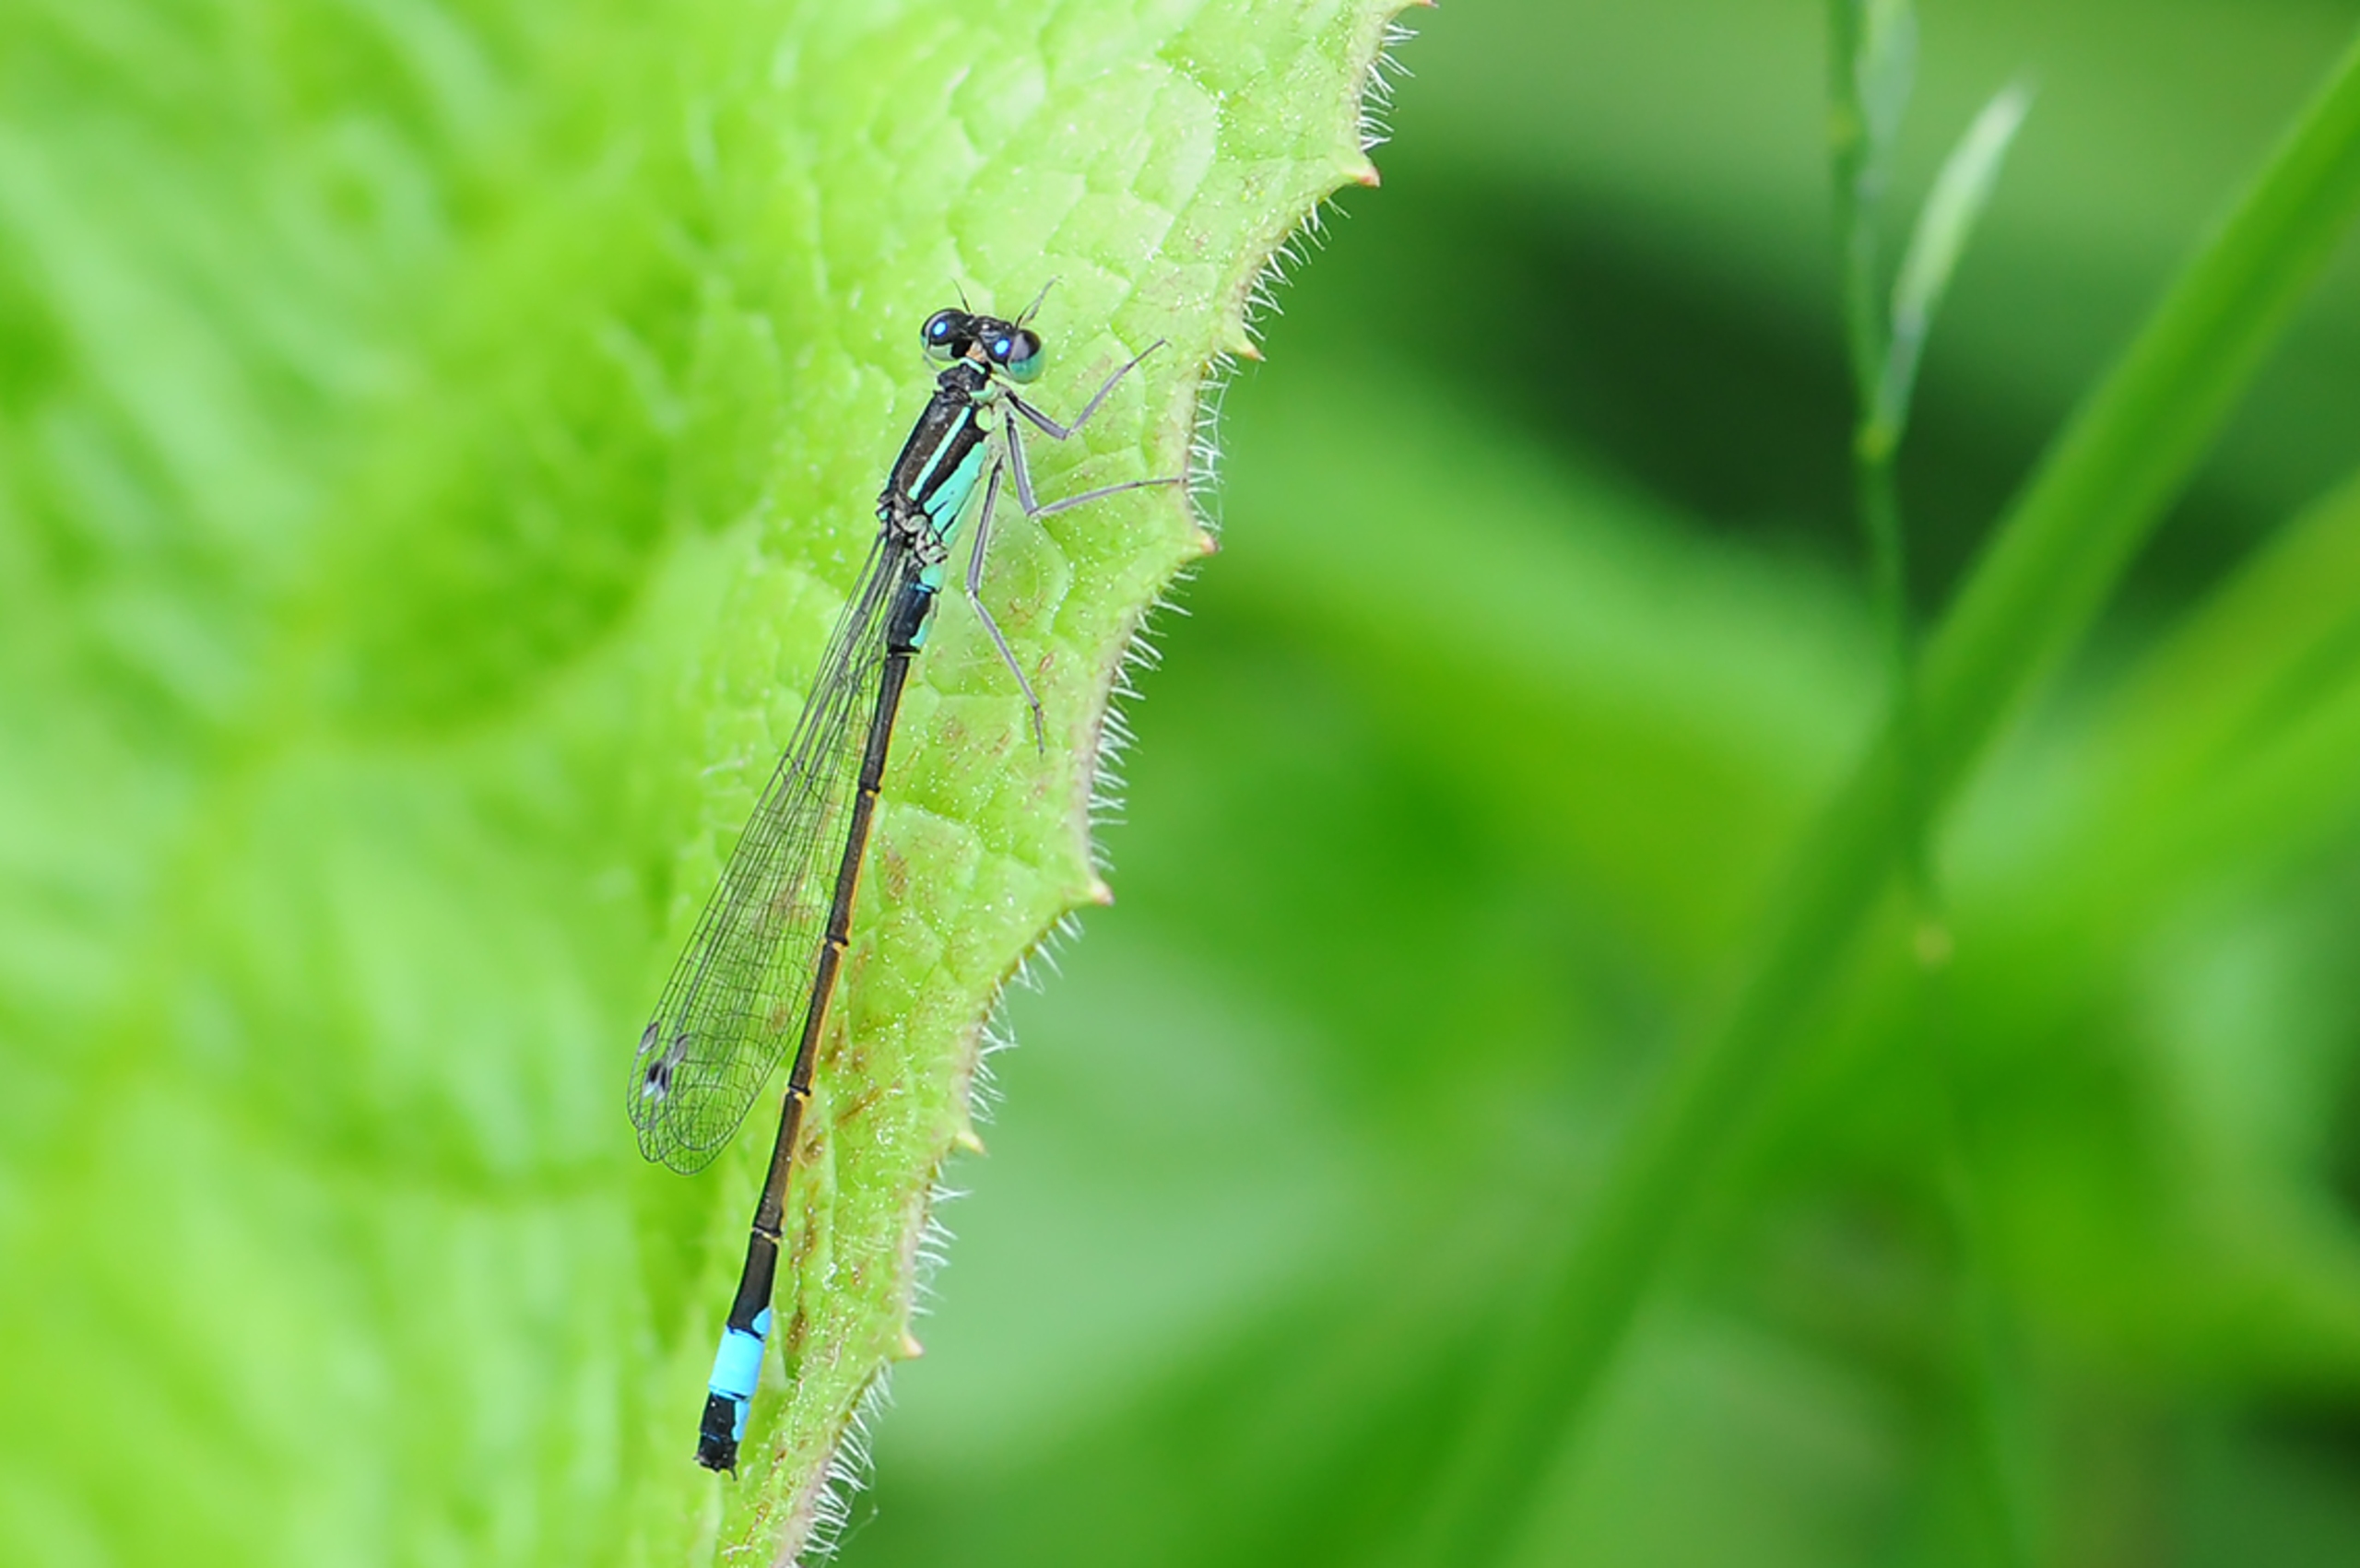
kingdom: Animalia
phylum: Arthropoda
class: Insecta
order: Odonata
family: Coenagrionidae
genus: Ischnura
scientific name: Ischnura elegans
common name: Stor farvevandnymfe
